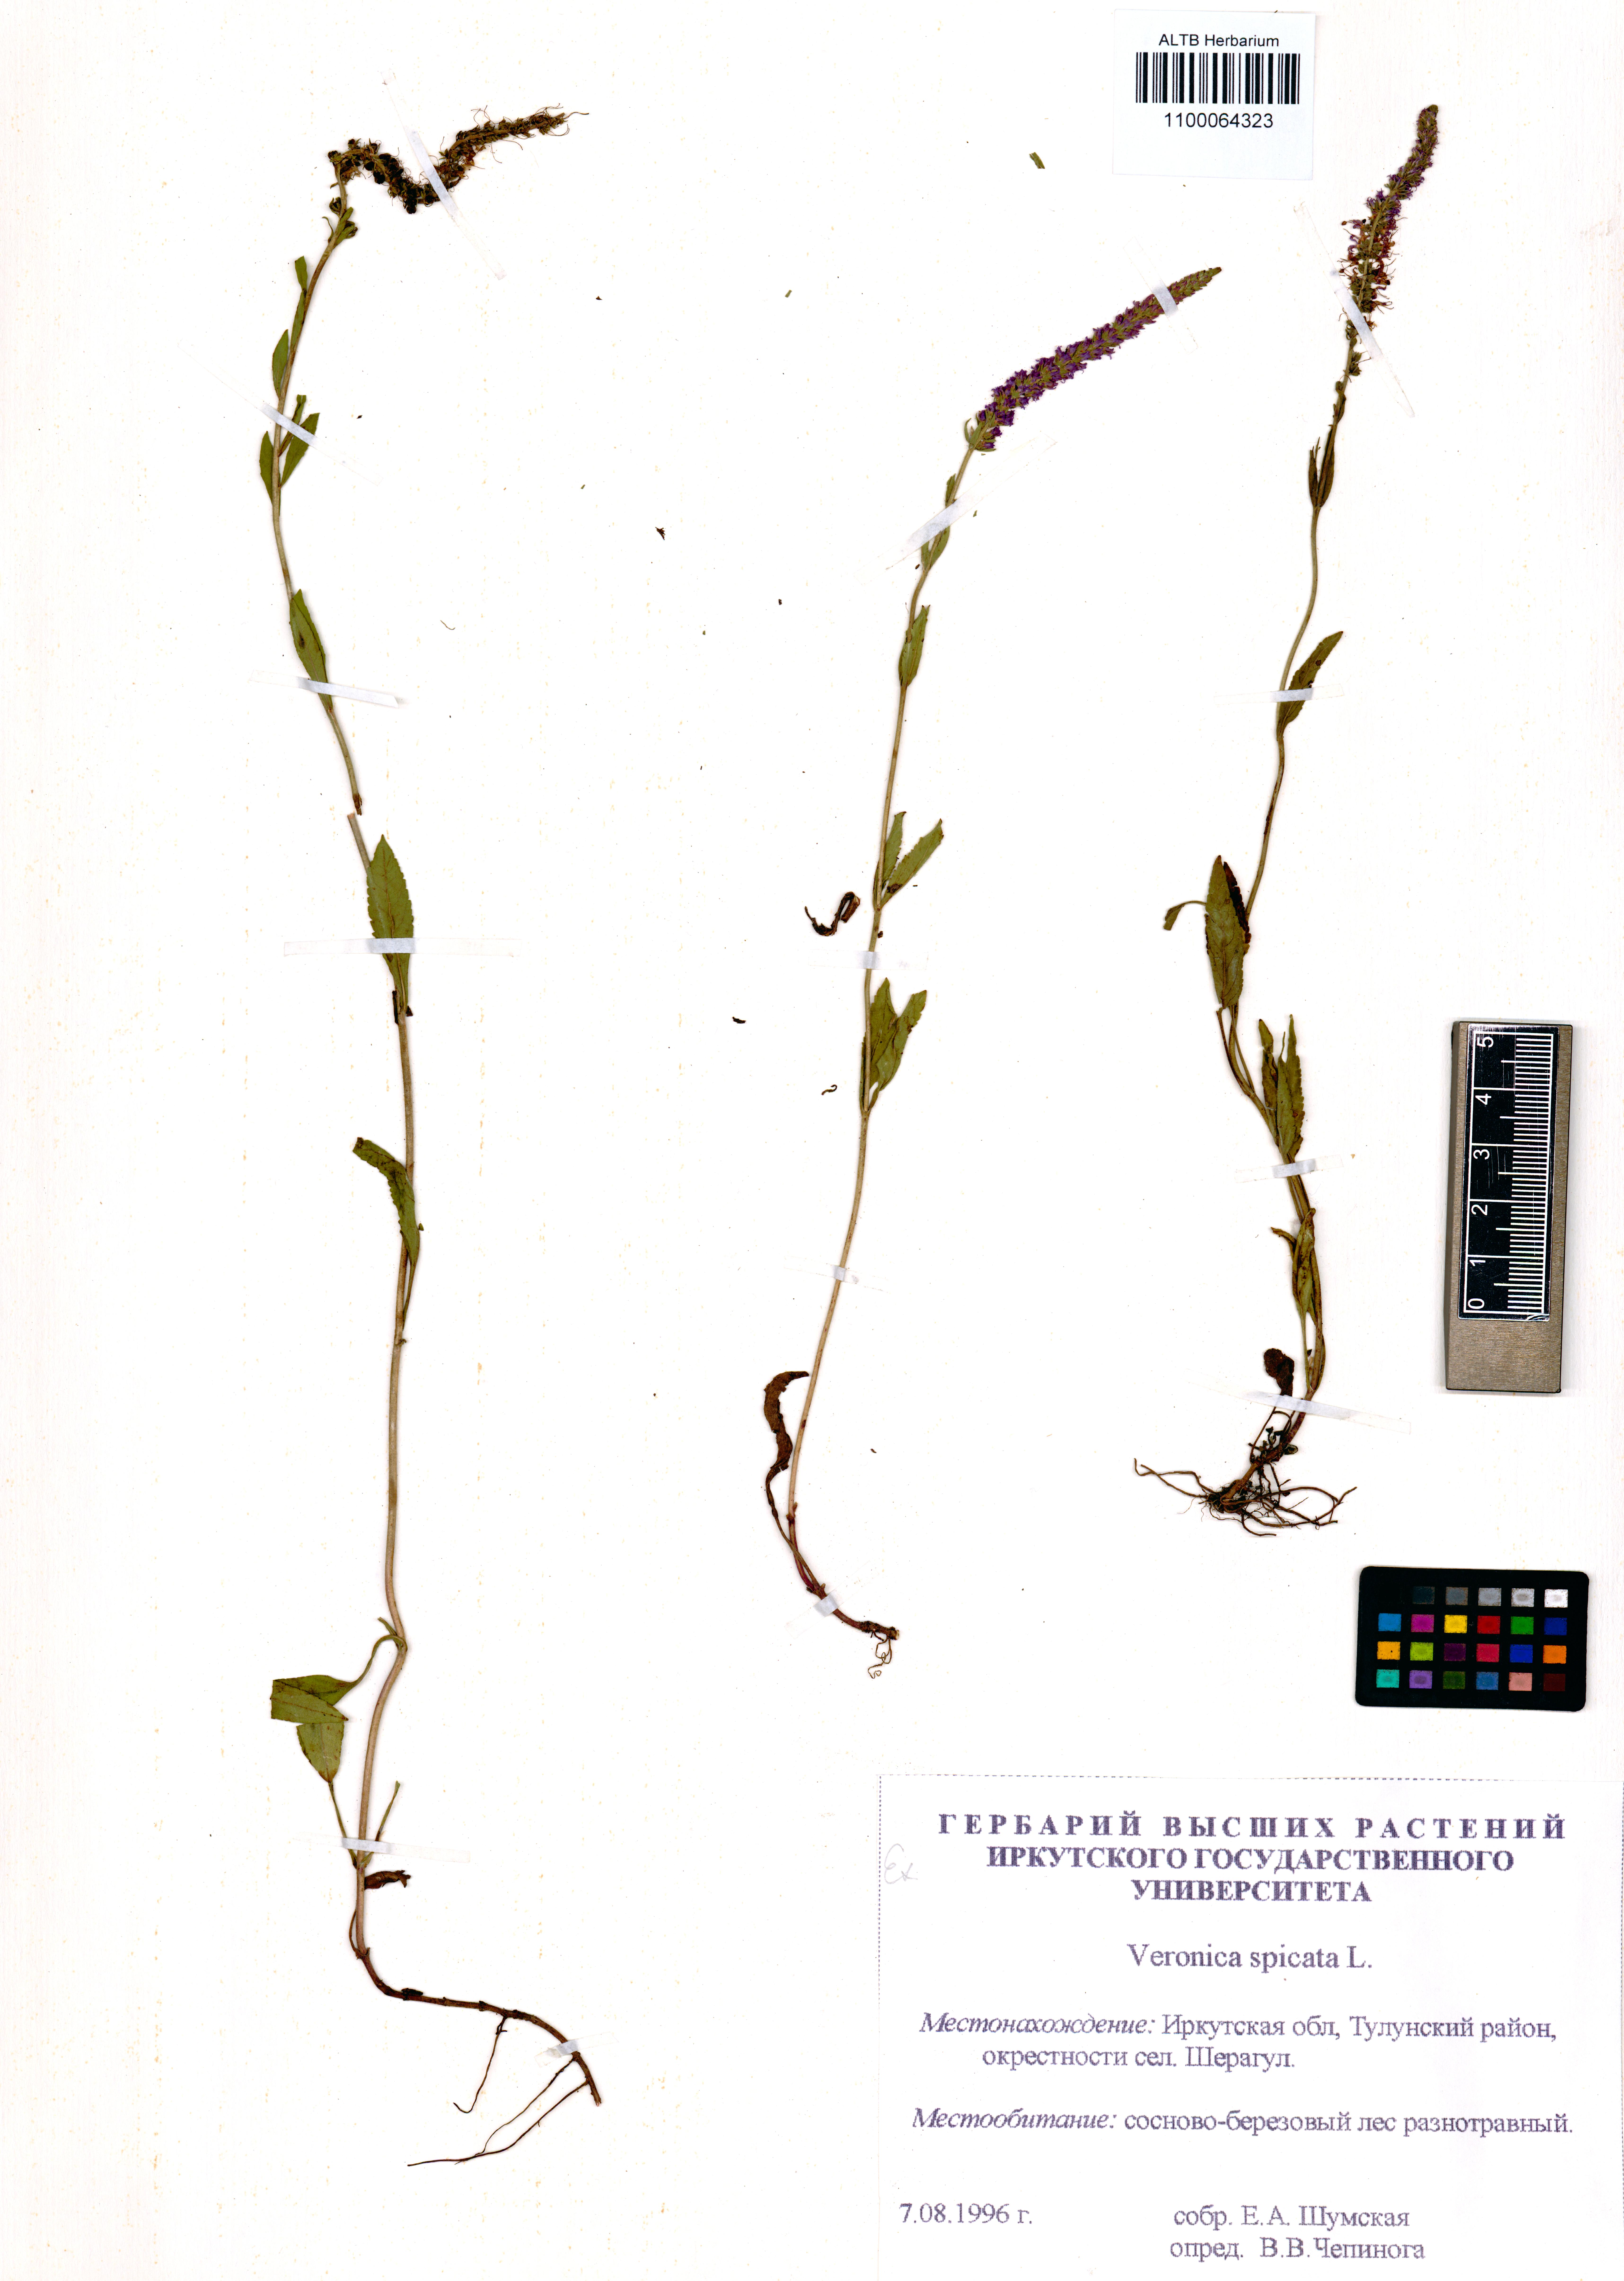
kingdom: Plantae
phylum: Tracheophyta
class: Magnoliopsida
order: Lamiales
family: Plantaginaceae
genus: Veronica
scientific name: Veronica spicata
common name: Spiked speedwell
